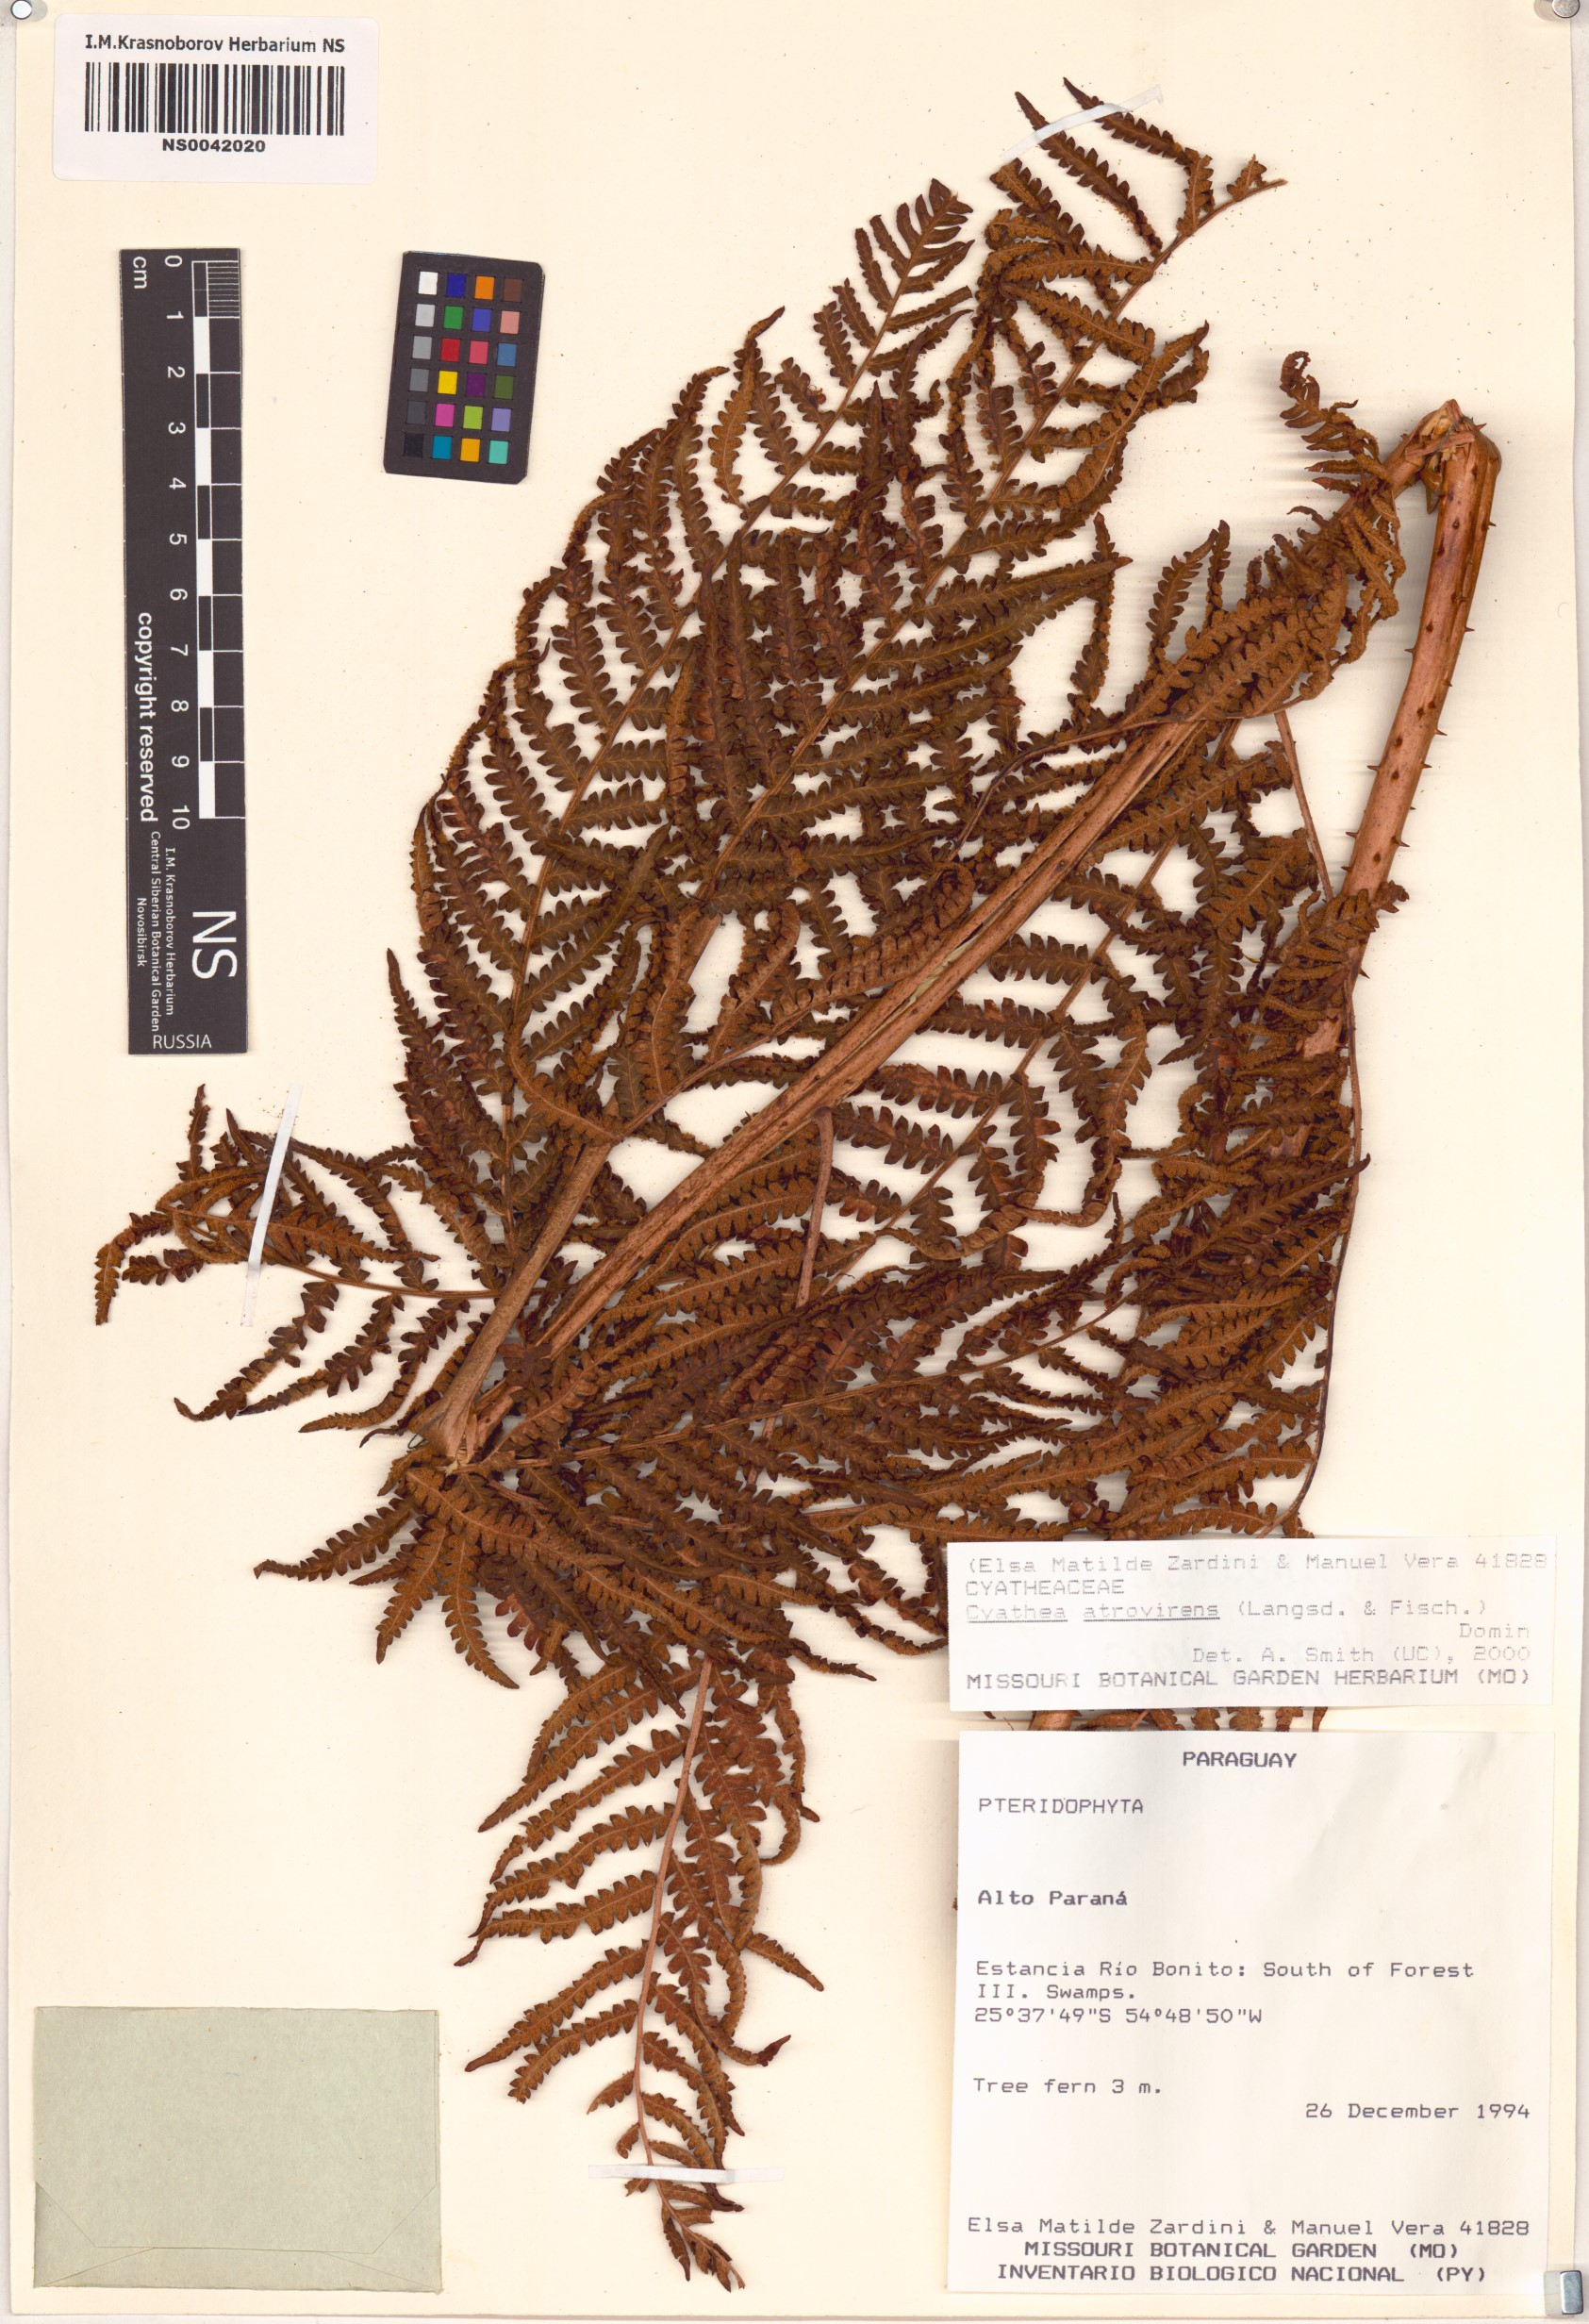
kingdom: Plantae
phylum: Tracheophyta
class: Polypodiopsida
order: Cyatheales
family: Cyatheaceae
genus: Cyathea
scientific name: Cyathea atrovirens
